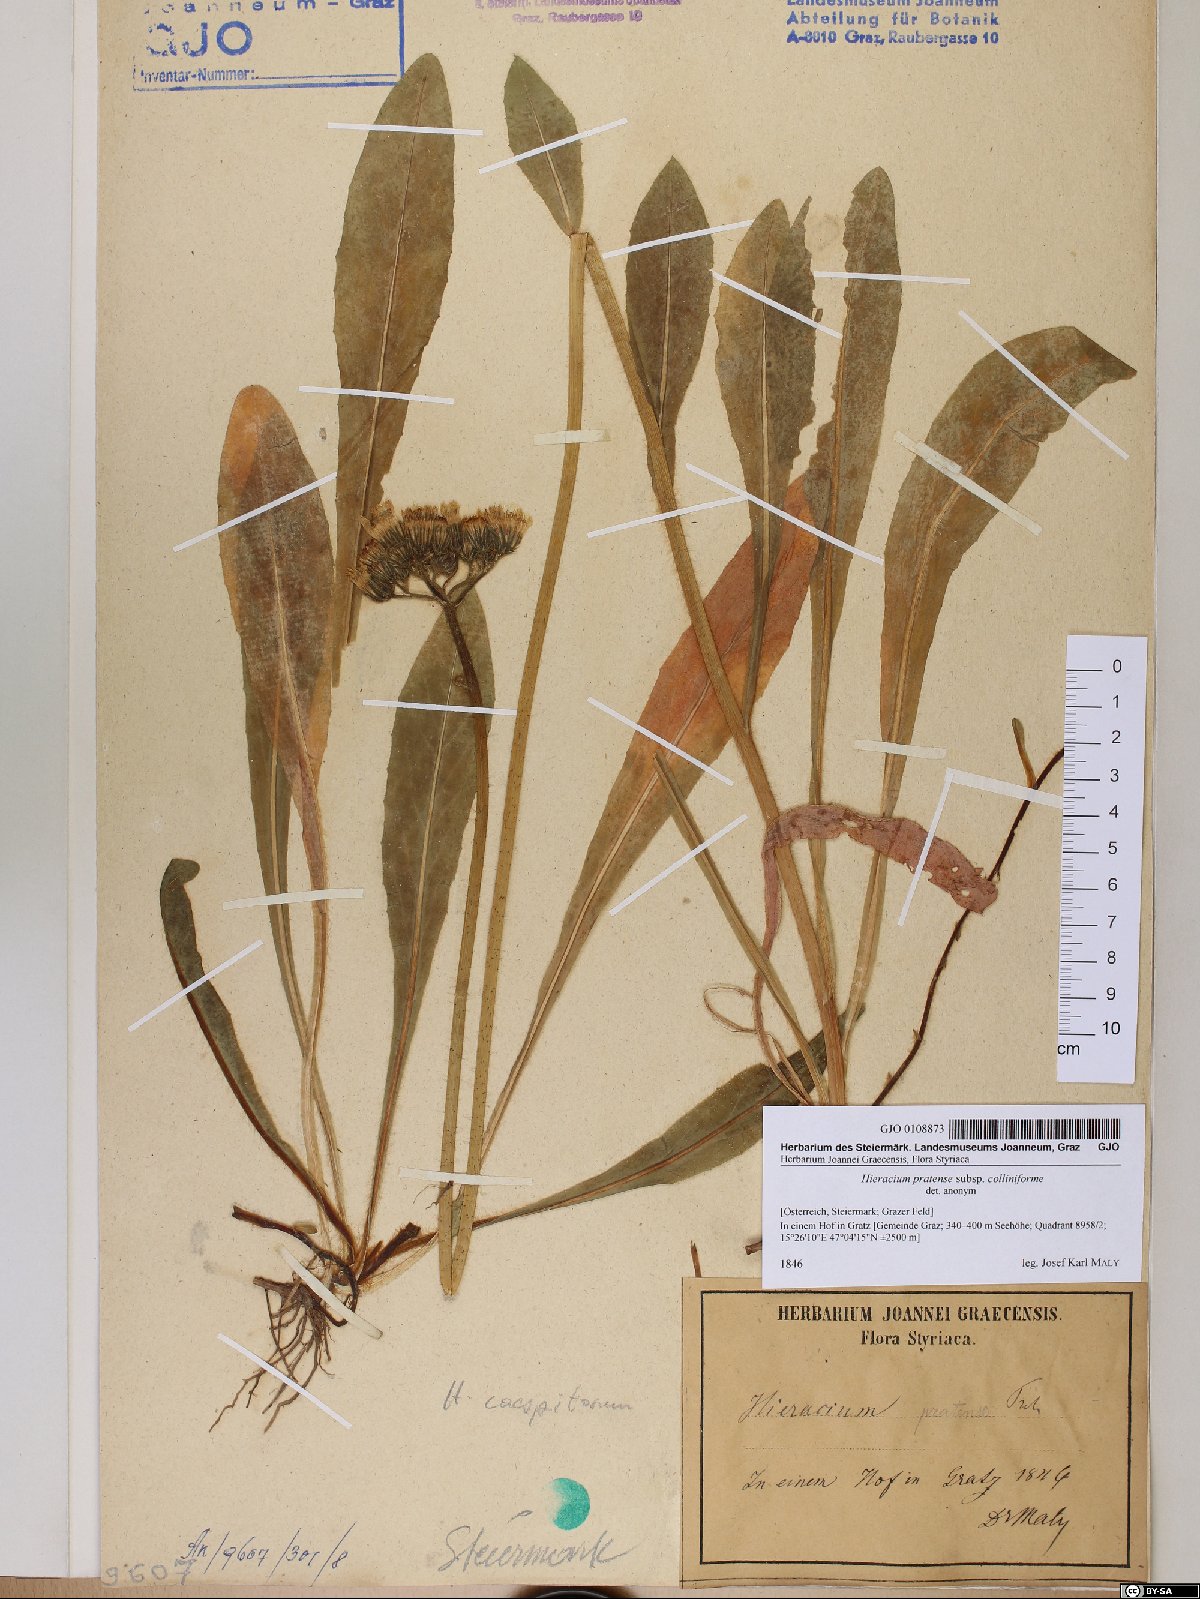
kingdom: Plantae
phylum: Tracheophyta
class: Magnoliopsida
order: Asterales
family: Asteraceae
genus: Pilosella
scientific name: Pilosella caespitosa
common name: Yellow fox-and-cubs
